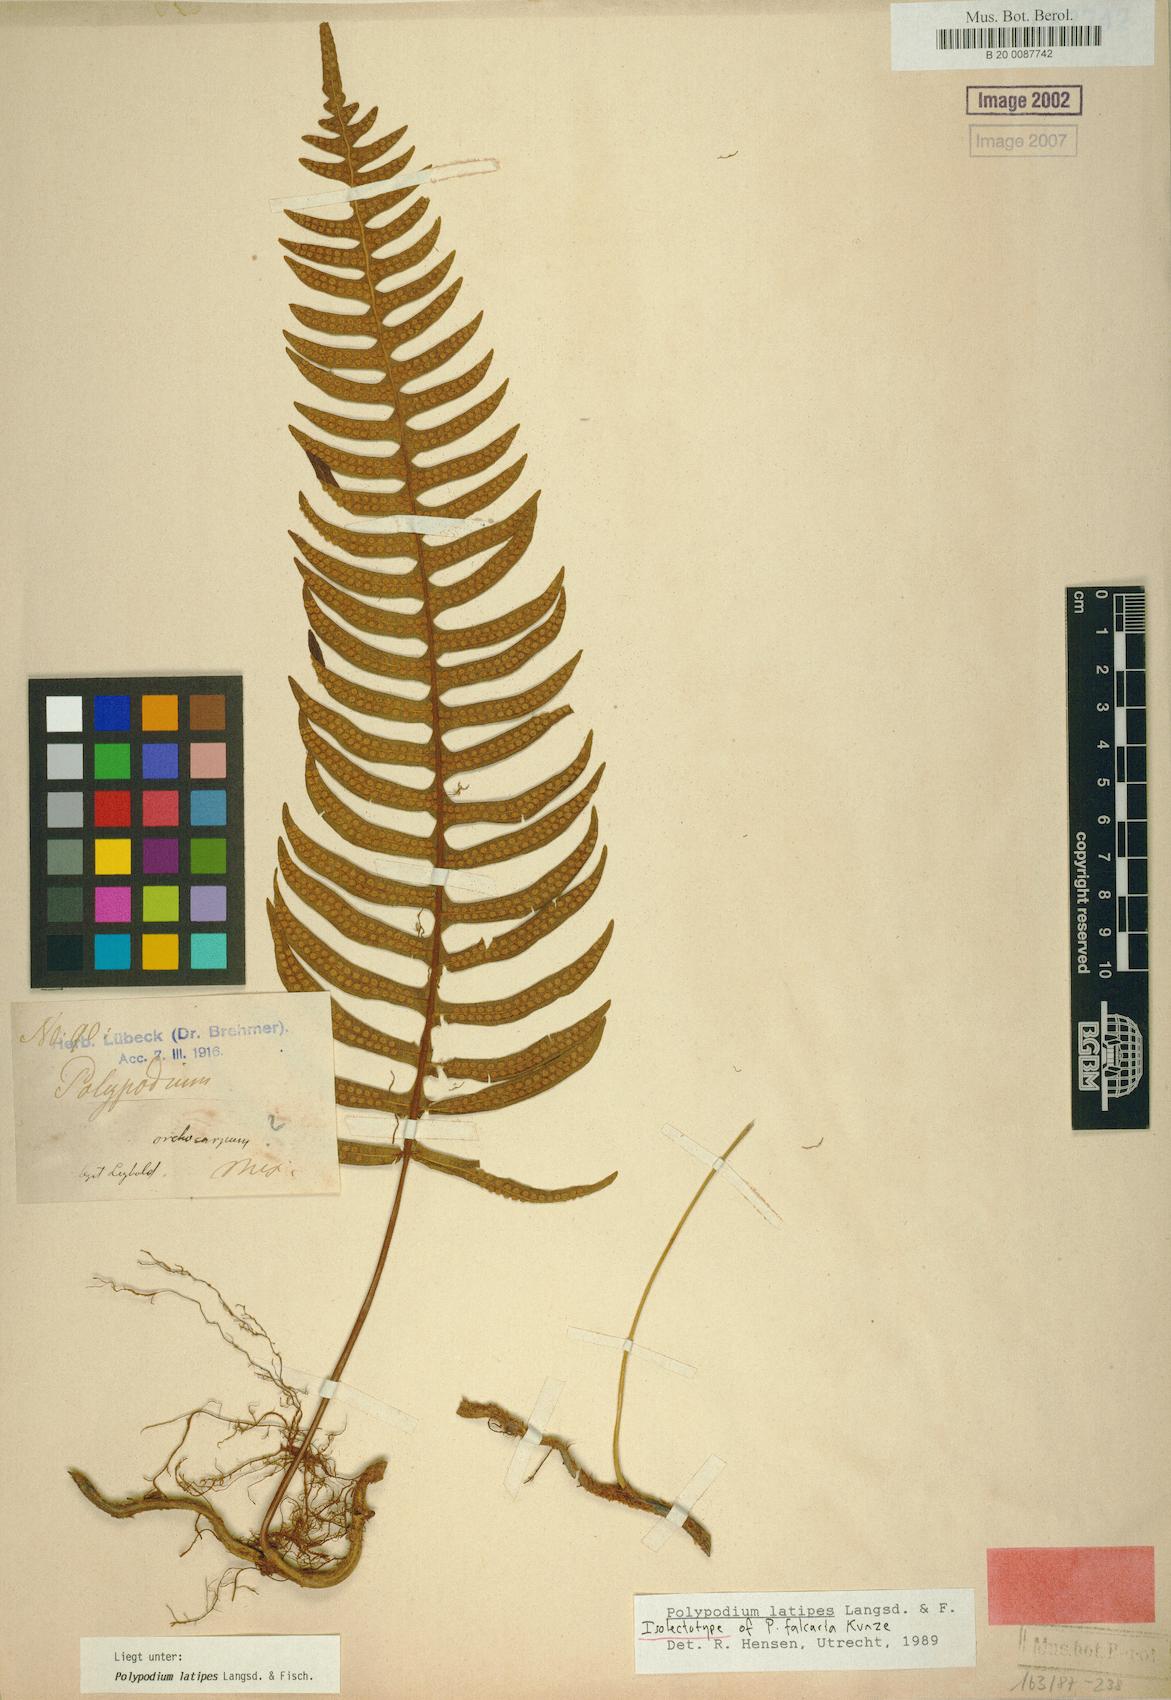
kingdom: Plantae
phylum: Tracheophyta
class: Polypodiopsida
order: Polypodiales
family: Polypodiaceae
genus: Serpocaulon
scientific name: Serpocaulon falcaria
